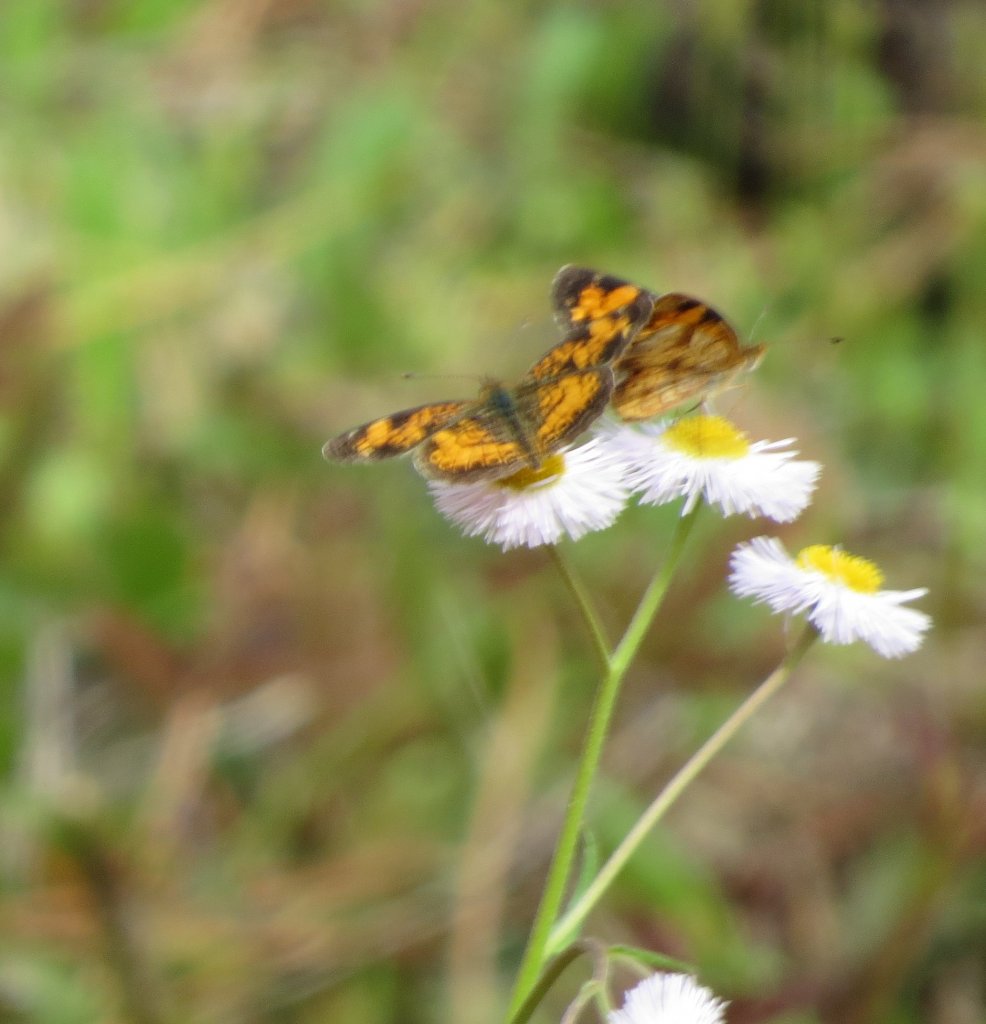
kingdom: Animalia
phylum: Arthropoda
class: Insecta
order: Lepidoptera
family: Nymphalidae
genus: Phyciodes
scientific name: Phyciodes tharos
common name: Pearl Crescent
